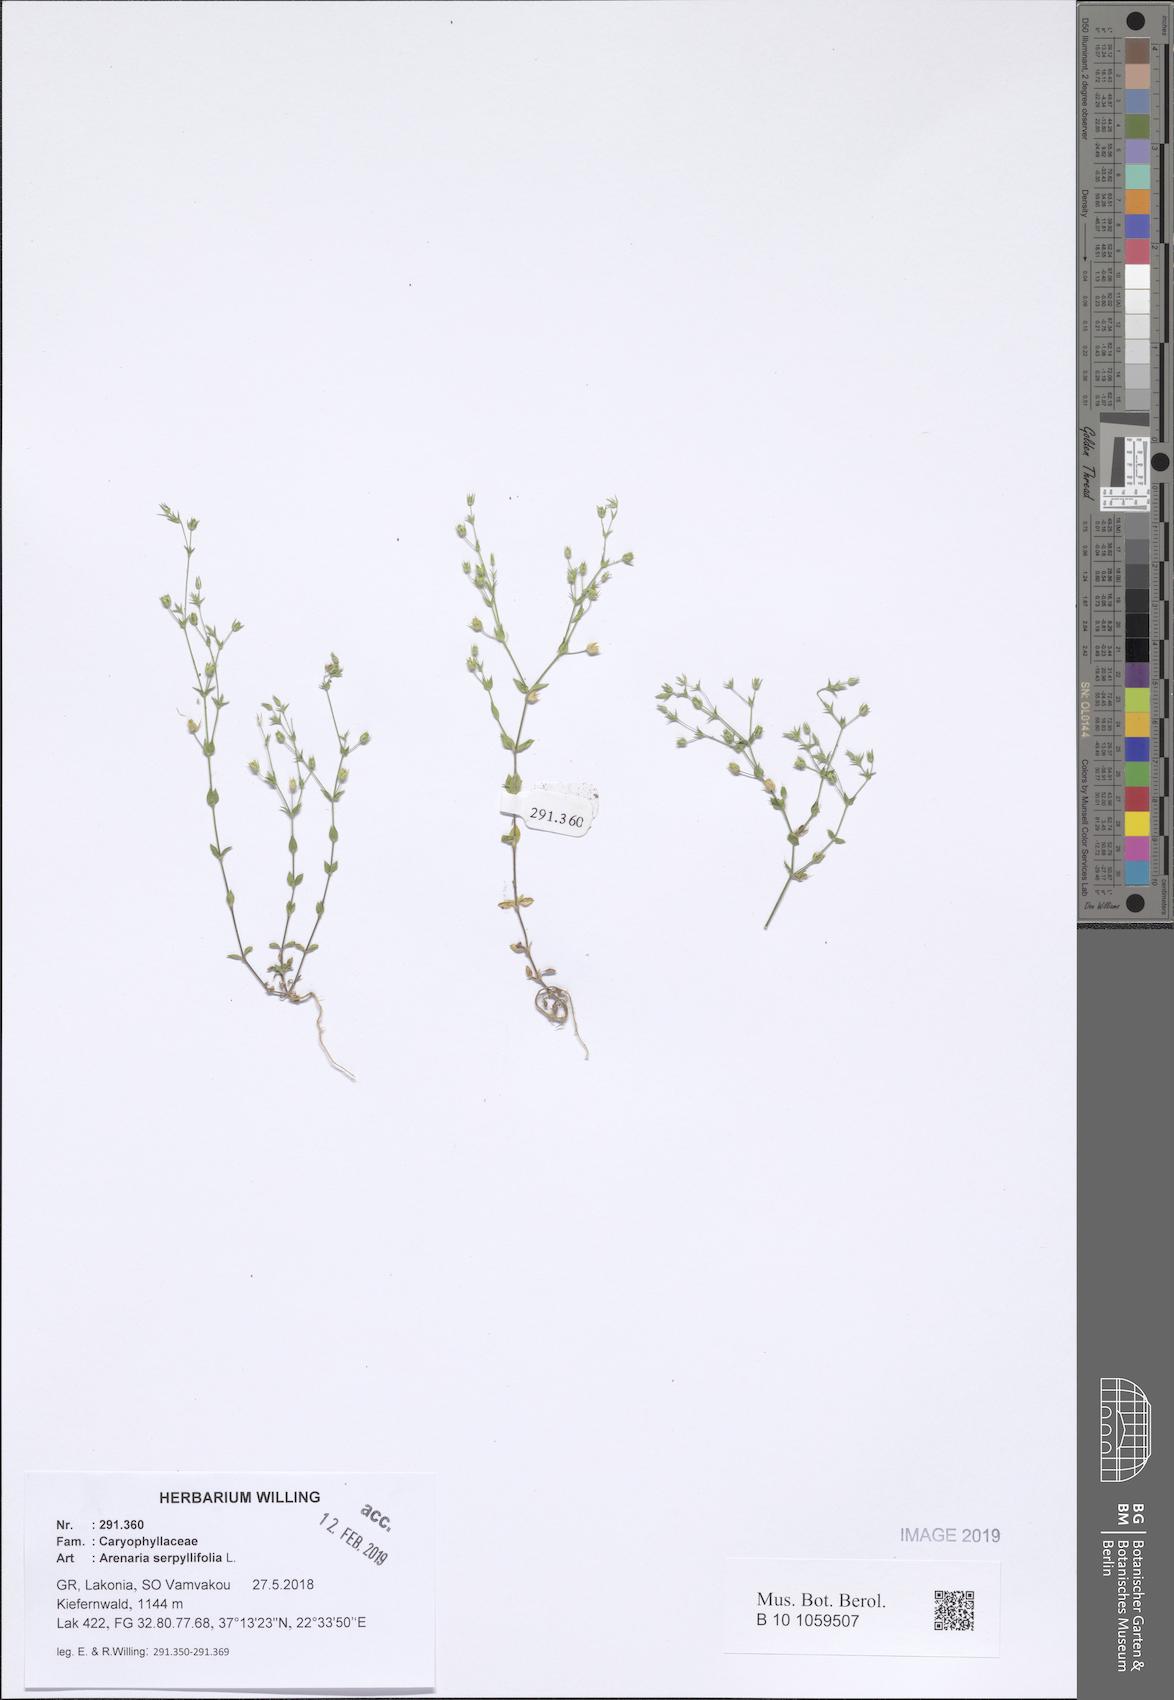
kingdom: Plantae
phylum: Tracheophyta
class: Magnoliopsida
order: Caryophyllales
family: Caryophyllaceae
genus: Arenaria
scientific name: Arenaria serpyllifolia
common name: Thyme-leaved sandwort
